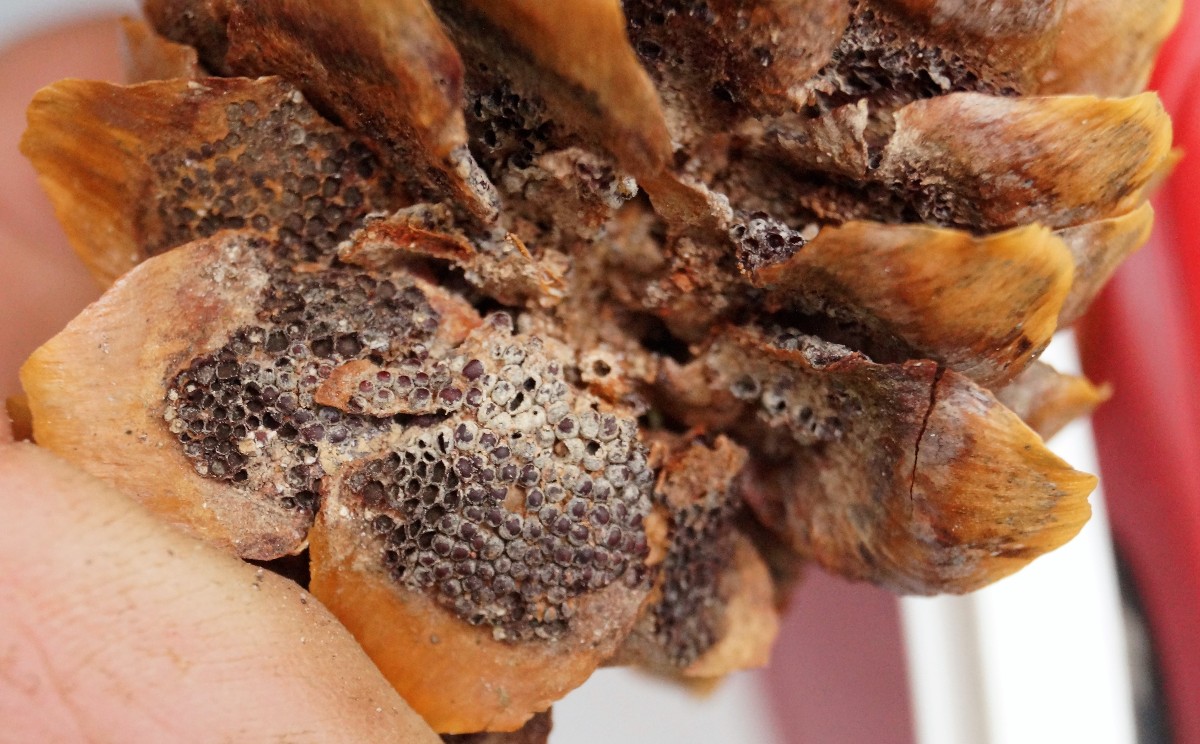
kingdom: Fungi
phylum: Basidiomycota
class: Pucciniomycetes
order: Pucciniales
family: Pucciniastraceae
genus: Thekopsora
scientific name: Thekopsora areolata
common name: grankogle-nålerust
